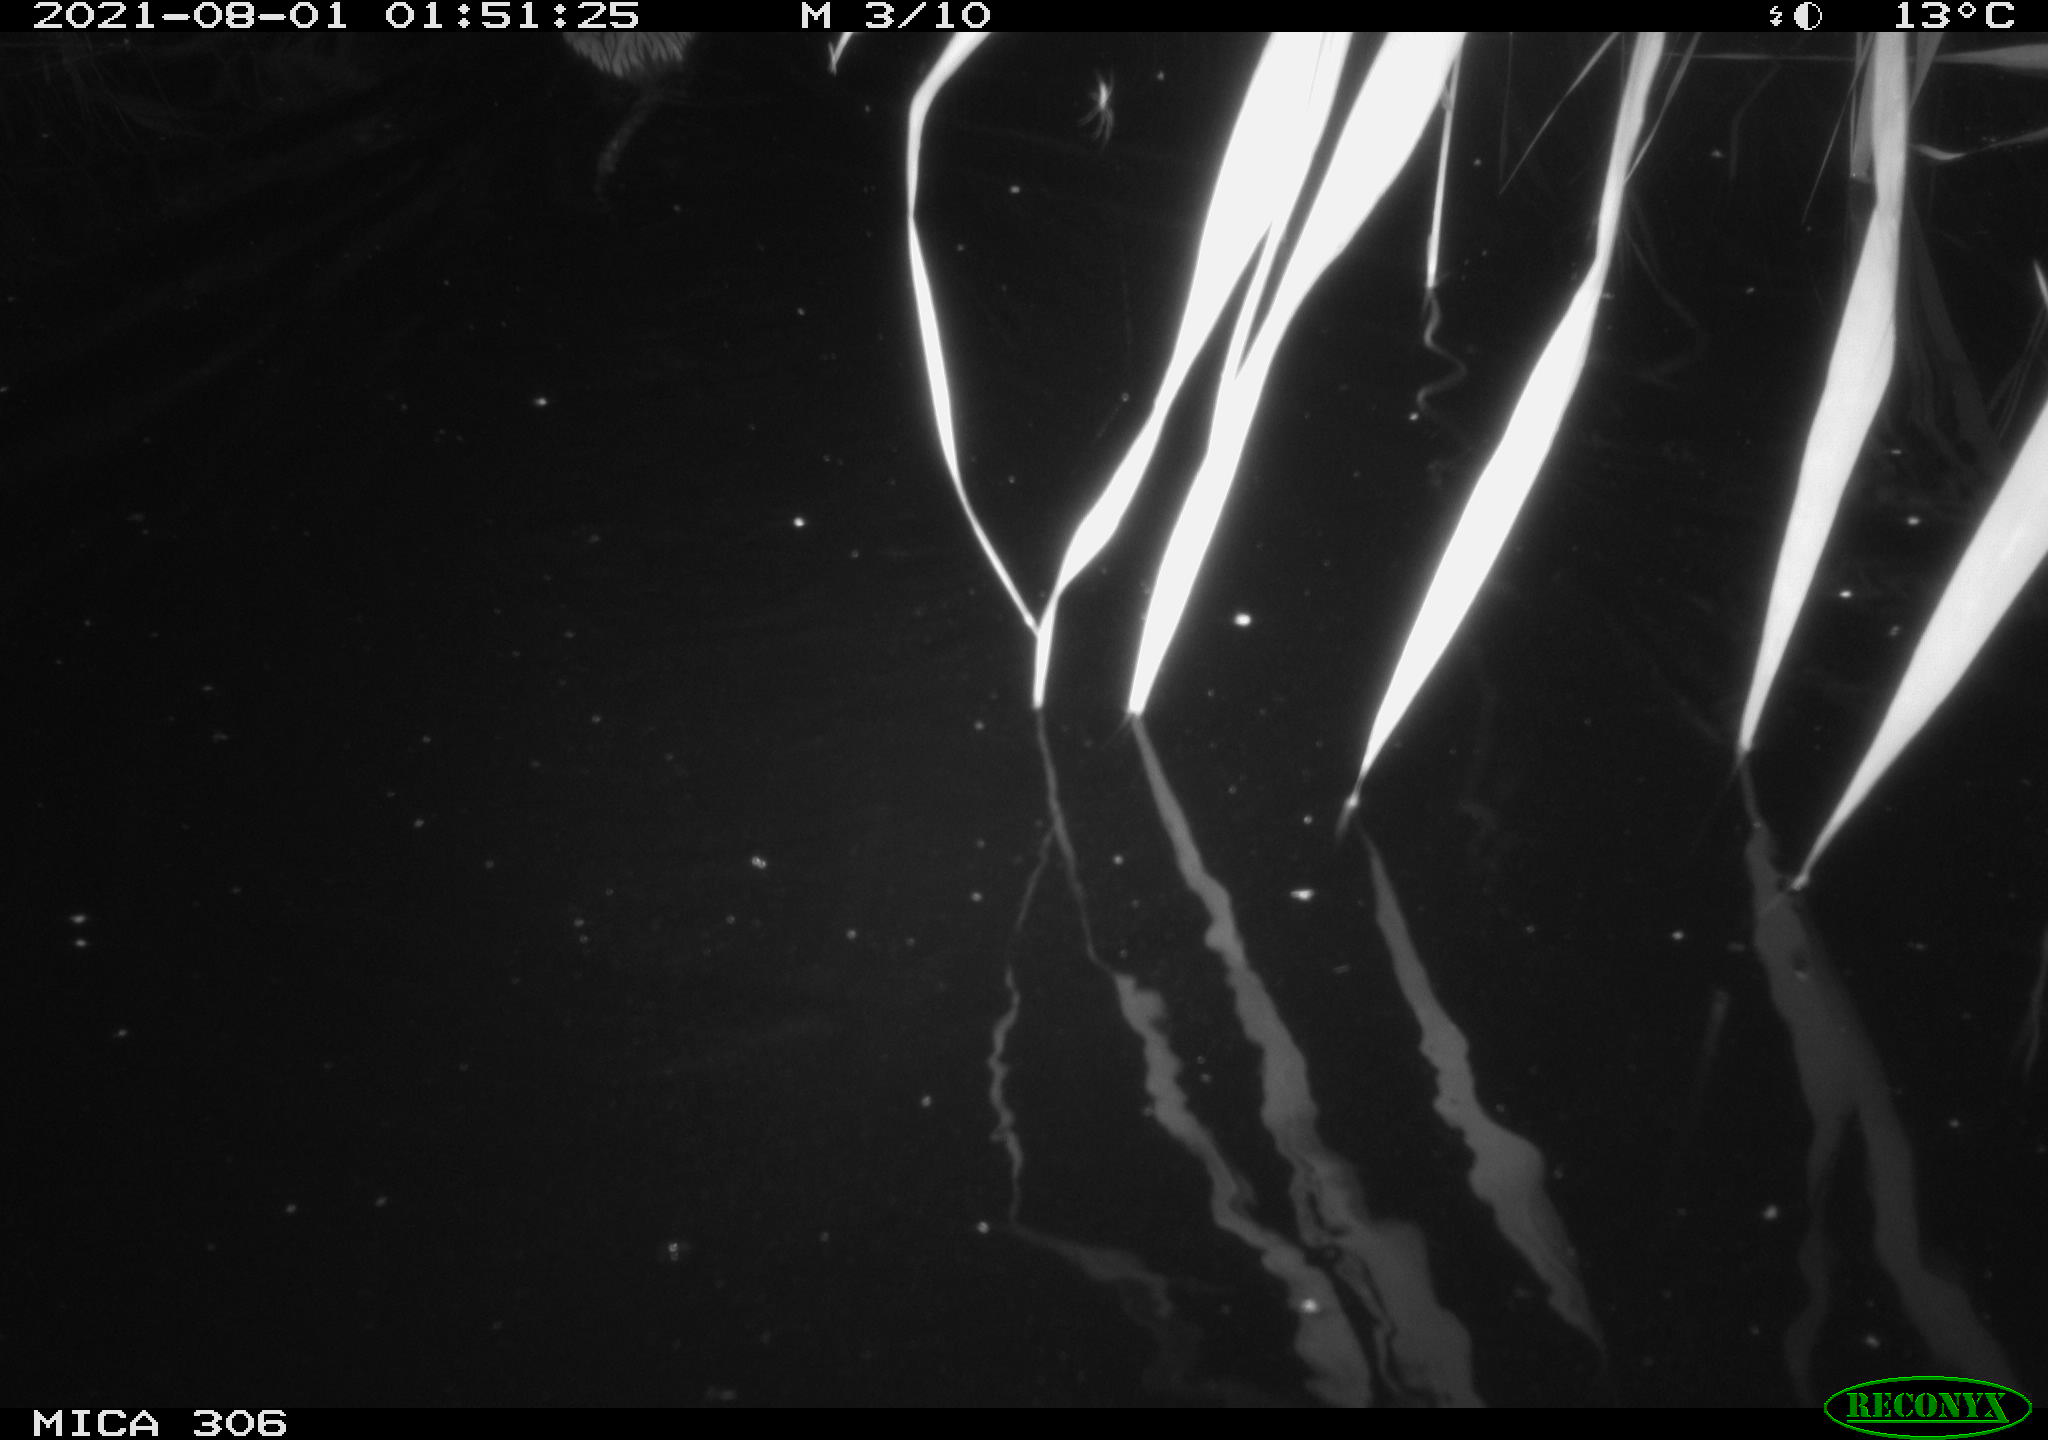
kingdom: Animalia
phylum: Chordata
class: Mammalia
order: Rodentia
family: Cricetidae
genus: Ondatra
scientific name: Ondatra zibethicus
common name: Muskrat
